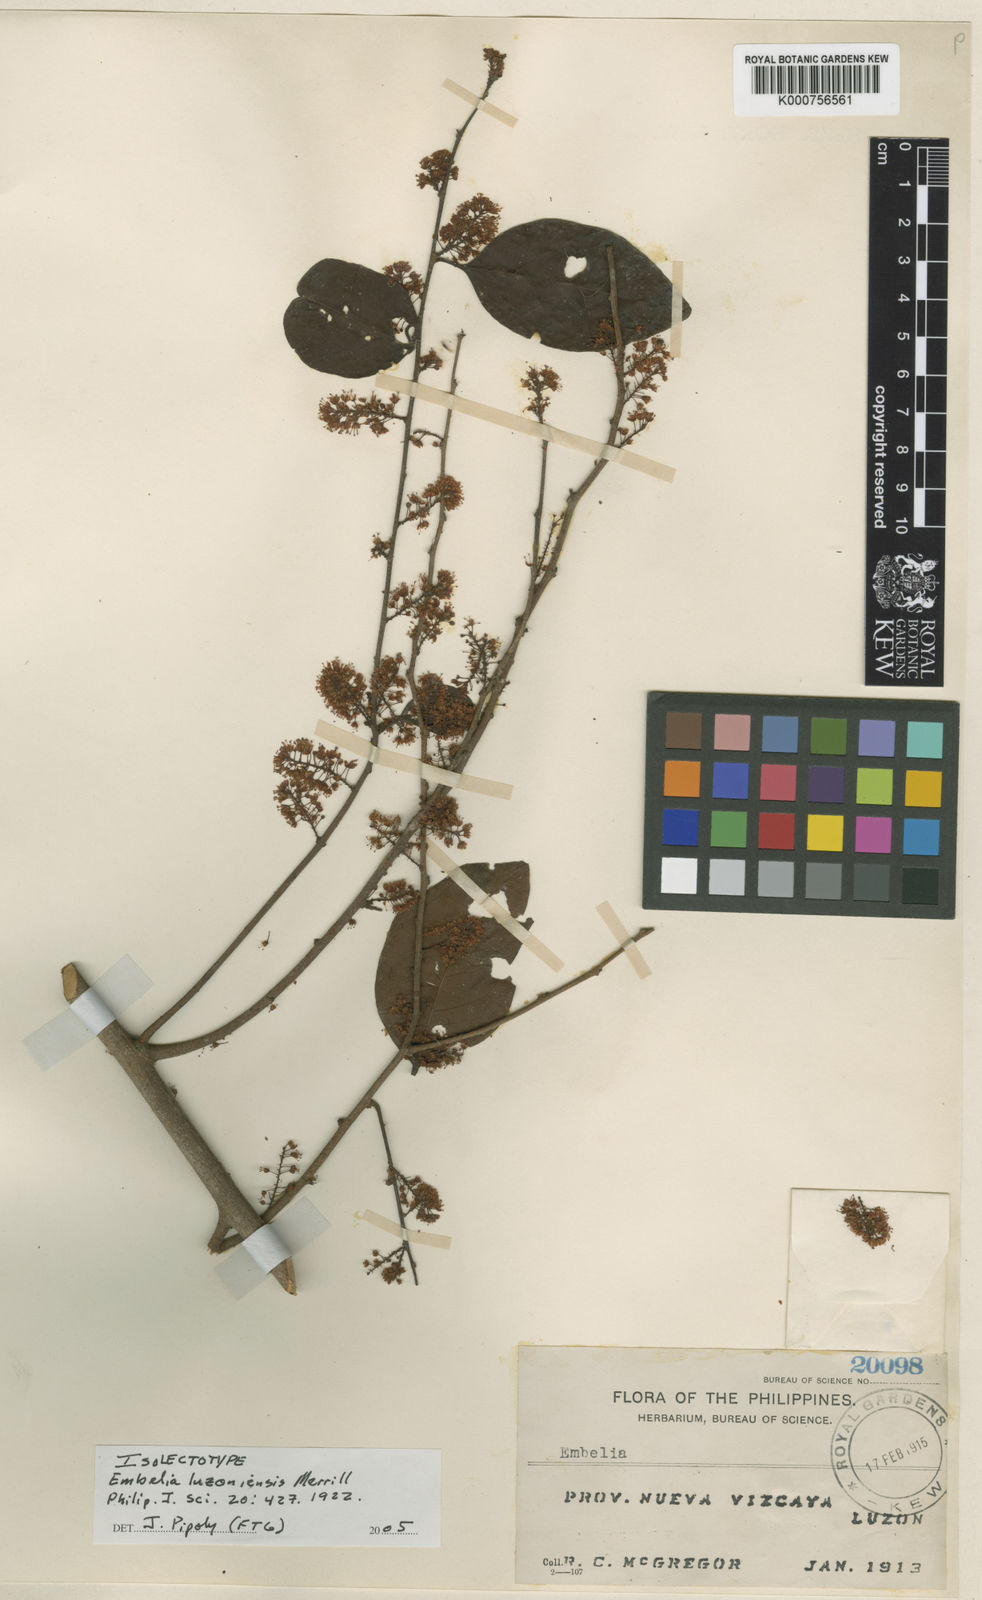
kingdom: Plantae
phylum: Tracheophyta
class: Magnoliopsida
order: Ericales
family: Primulaceae
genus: Embelia
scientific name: Embelia luzoniensis
